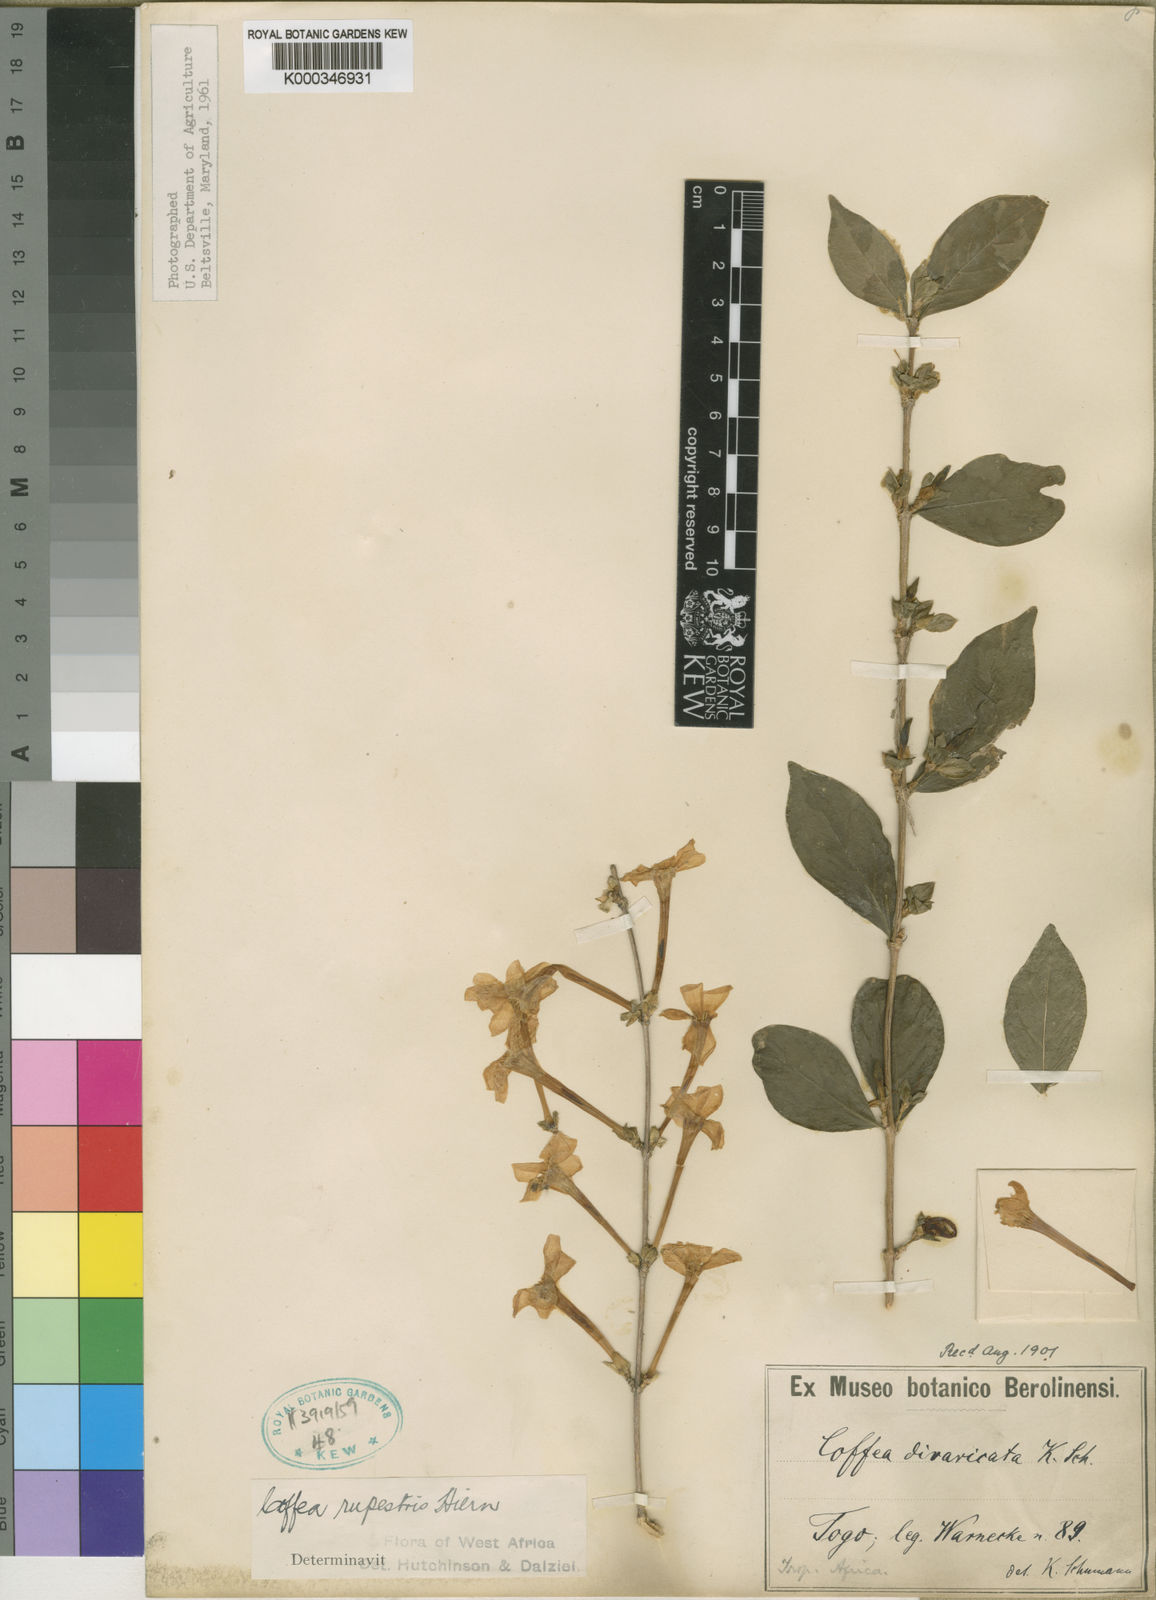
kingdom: Plantae
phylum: Tracheophyta
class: Magnoliopsida
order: Gentianales
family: Rubiaceae
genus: Argocoffeopsis
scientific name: Argocoffeopsis rupestris
